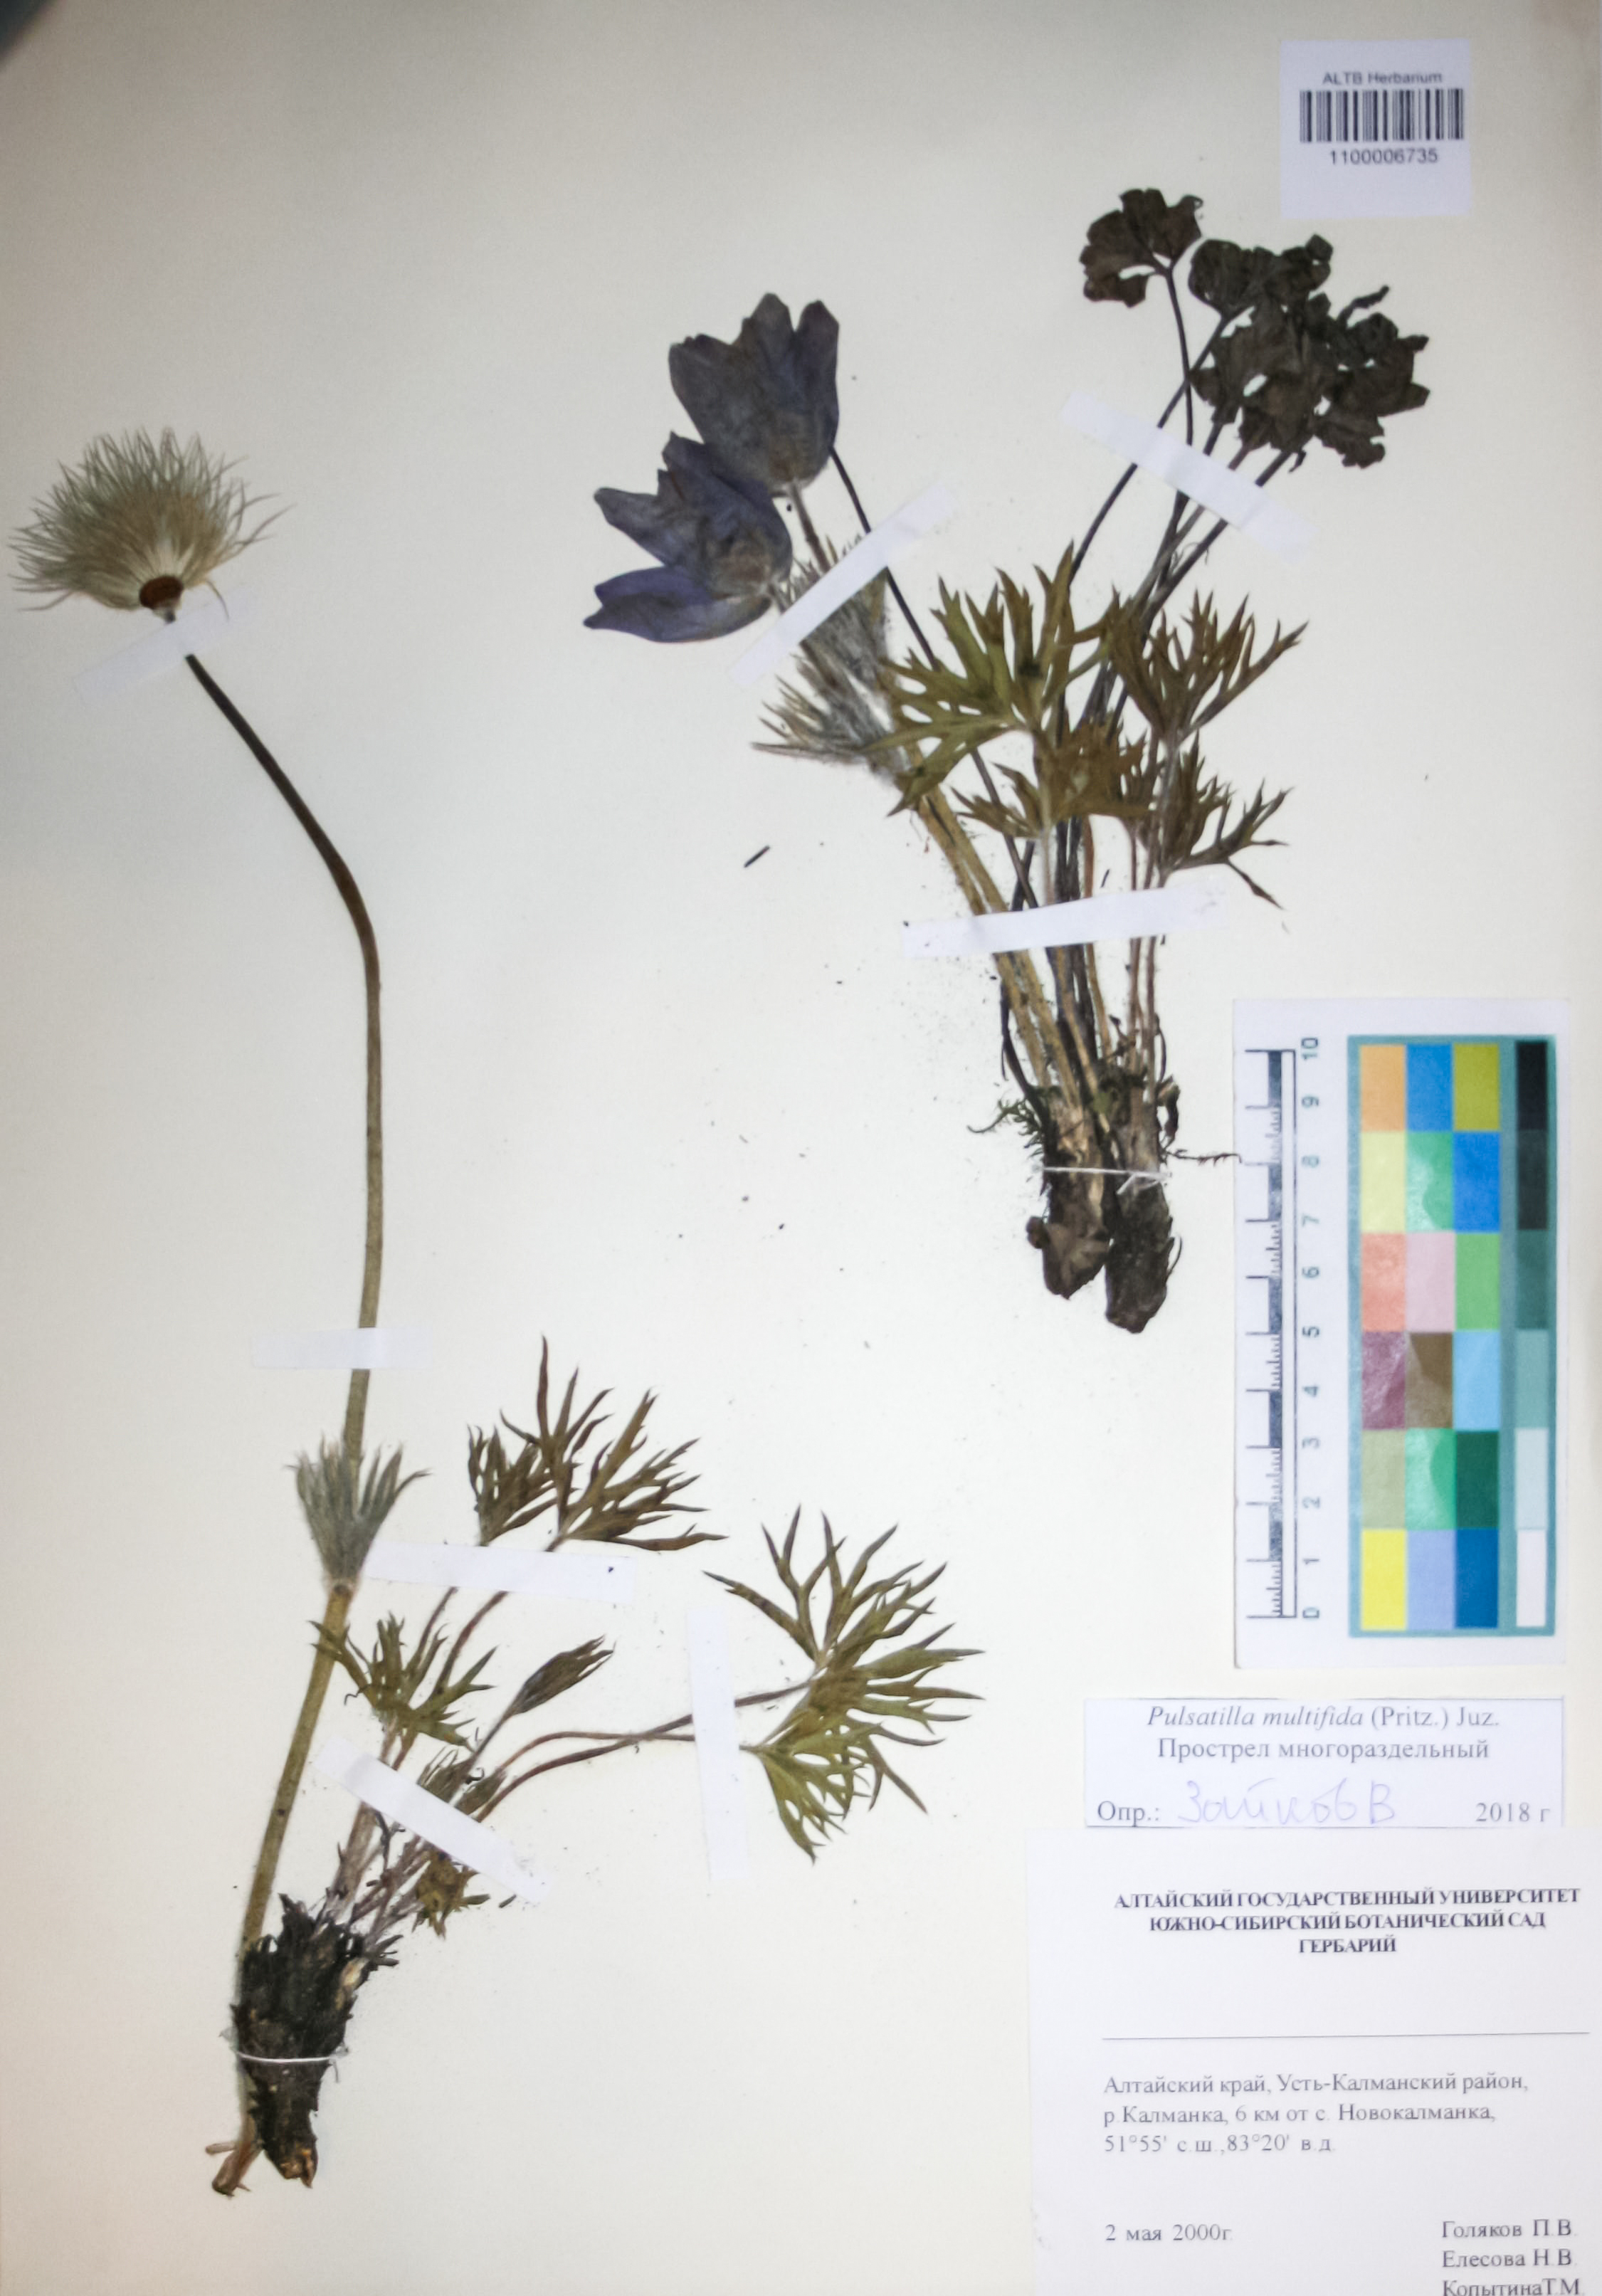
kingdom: Plantae
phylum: Tracheophyta
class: Magnoliopsida
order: Ranunculales
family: Ranunculaceae
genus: Pulsatilla
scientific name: Pulsatilla patens
